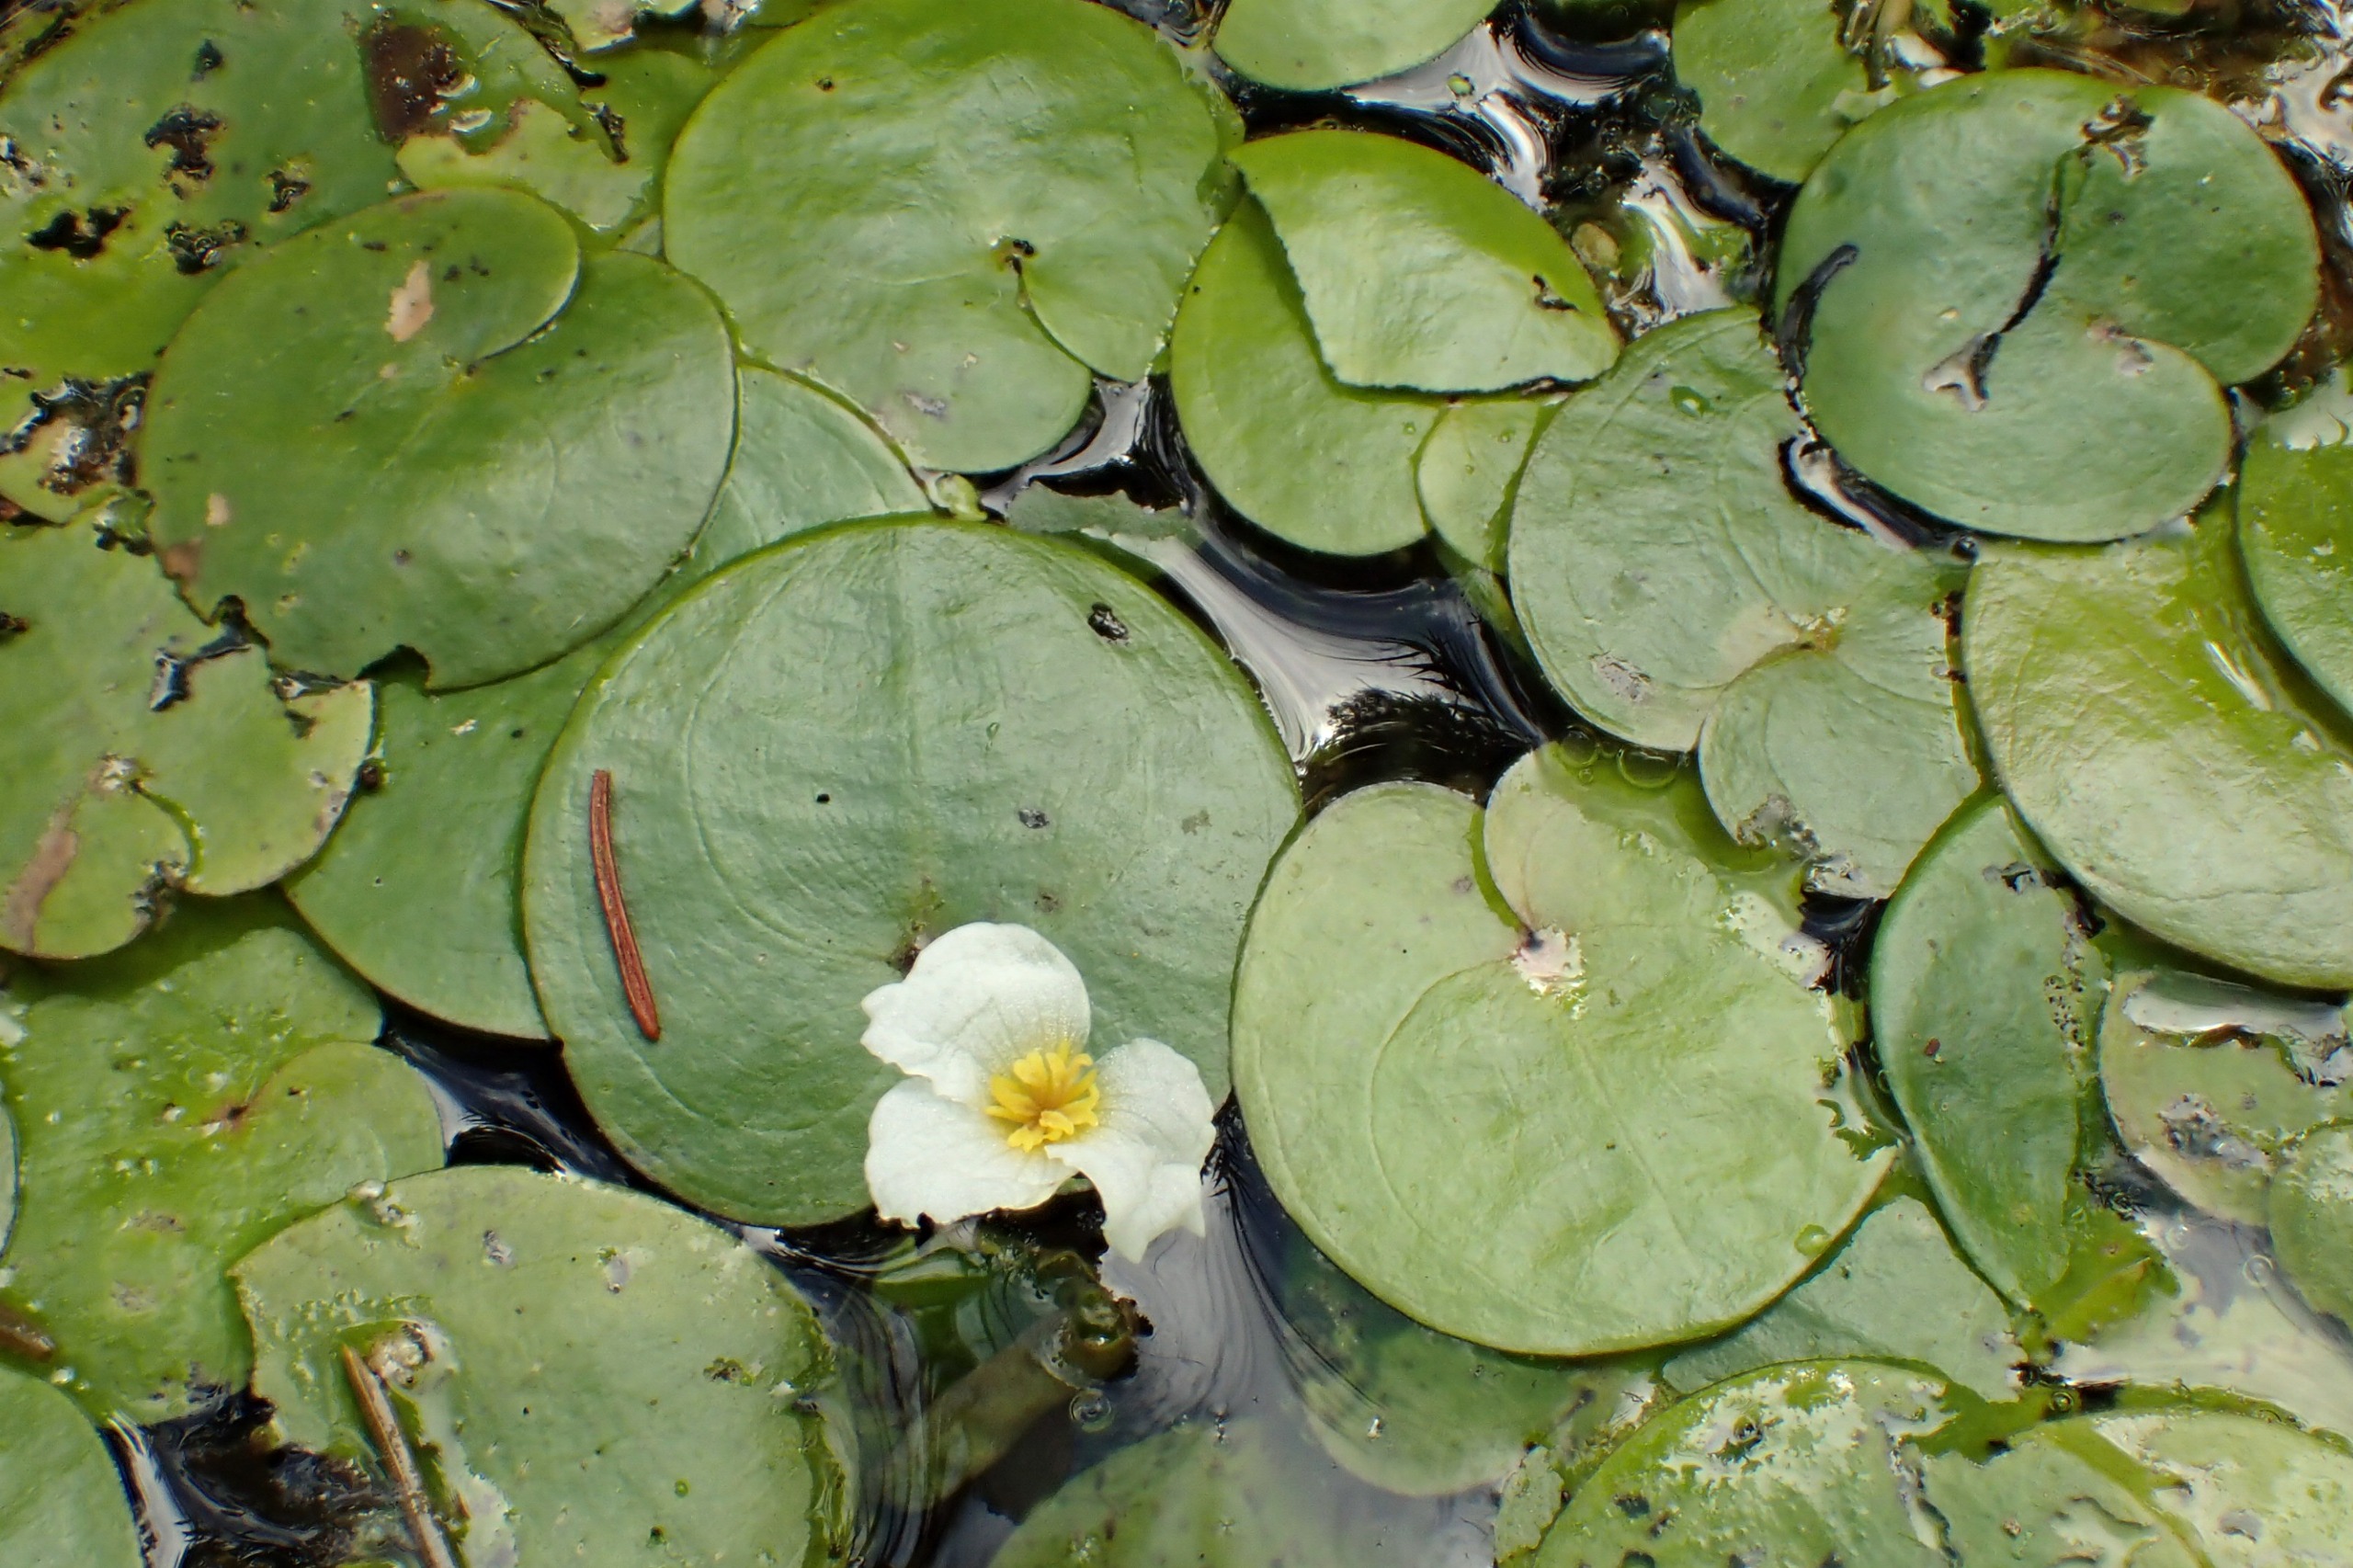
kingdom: Plantae
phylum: Tracheophyta
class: Liliopsida
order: Alismatales
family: Hydrocharitaceae
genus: Hydrocharis
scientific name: Hydrocharis morsus-ranae
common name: Frøbid
